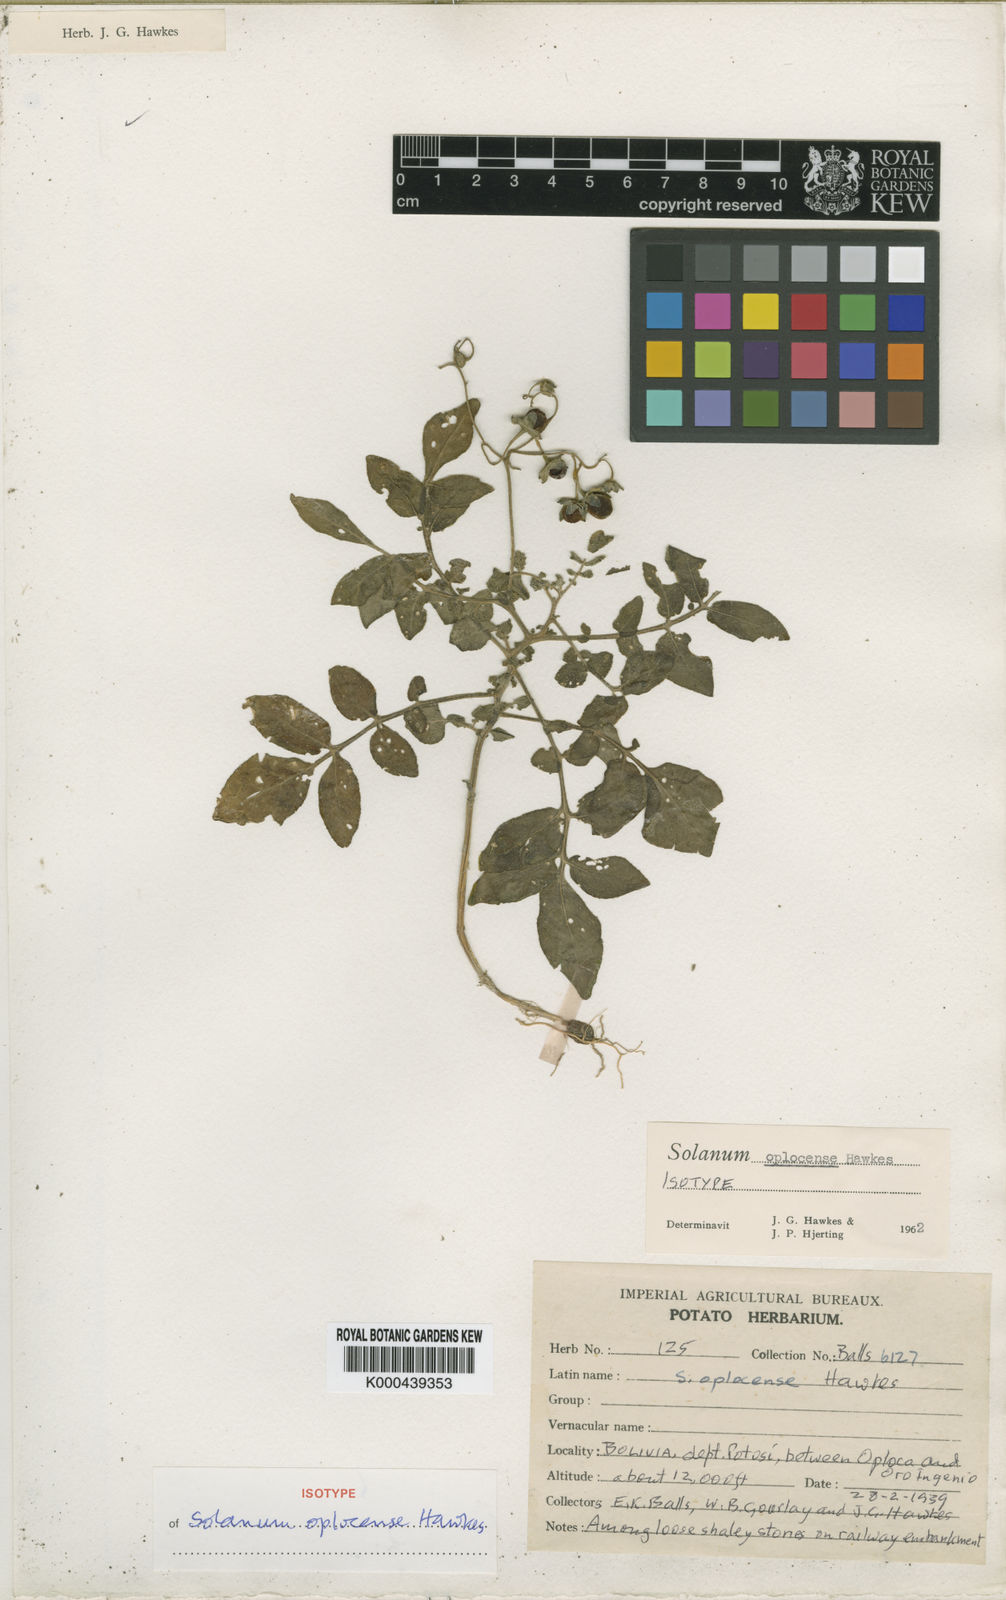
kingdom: Plantae
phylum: Tracheophyta
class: Magnoliopsida
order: Solanales
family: Solanaceae
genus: Solanum
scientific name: Solanum brevicaule
